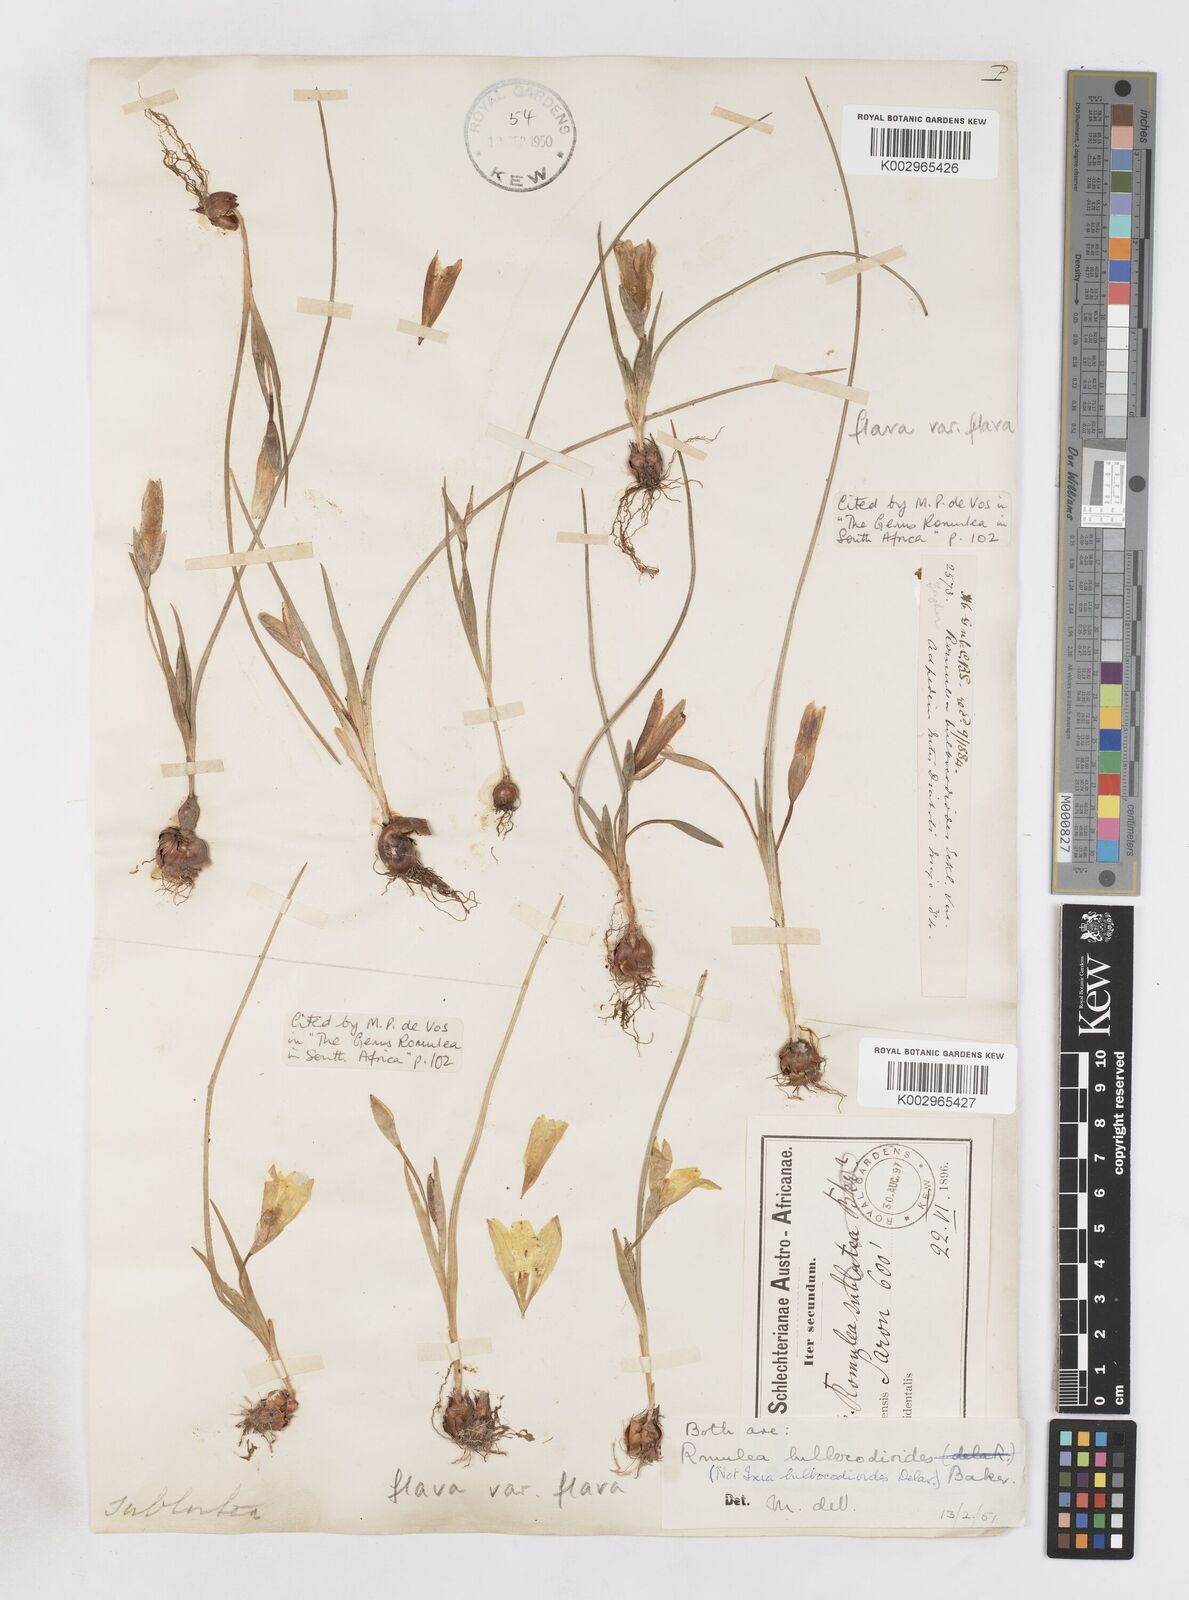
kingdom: Plantae
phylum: Tracheophyta
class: Liliopsida
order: Asparagales
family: Iridaceae
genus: Romulea
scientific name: Romulea flava
